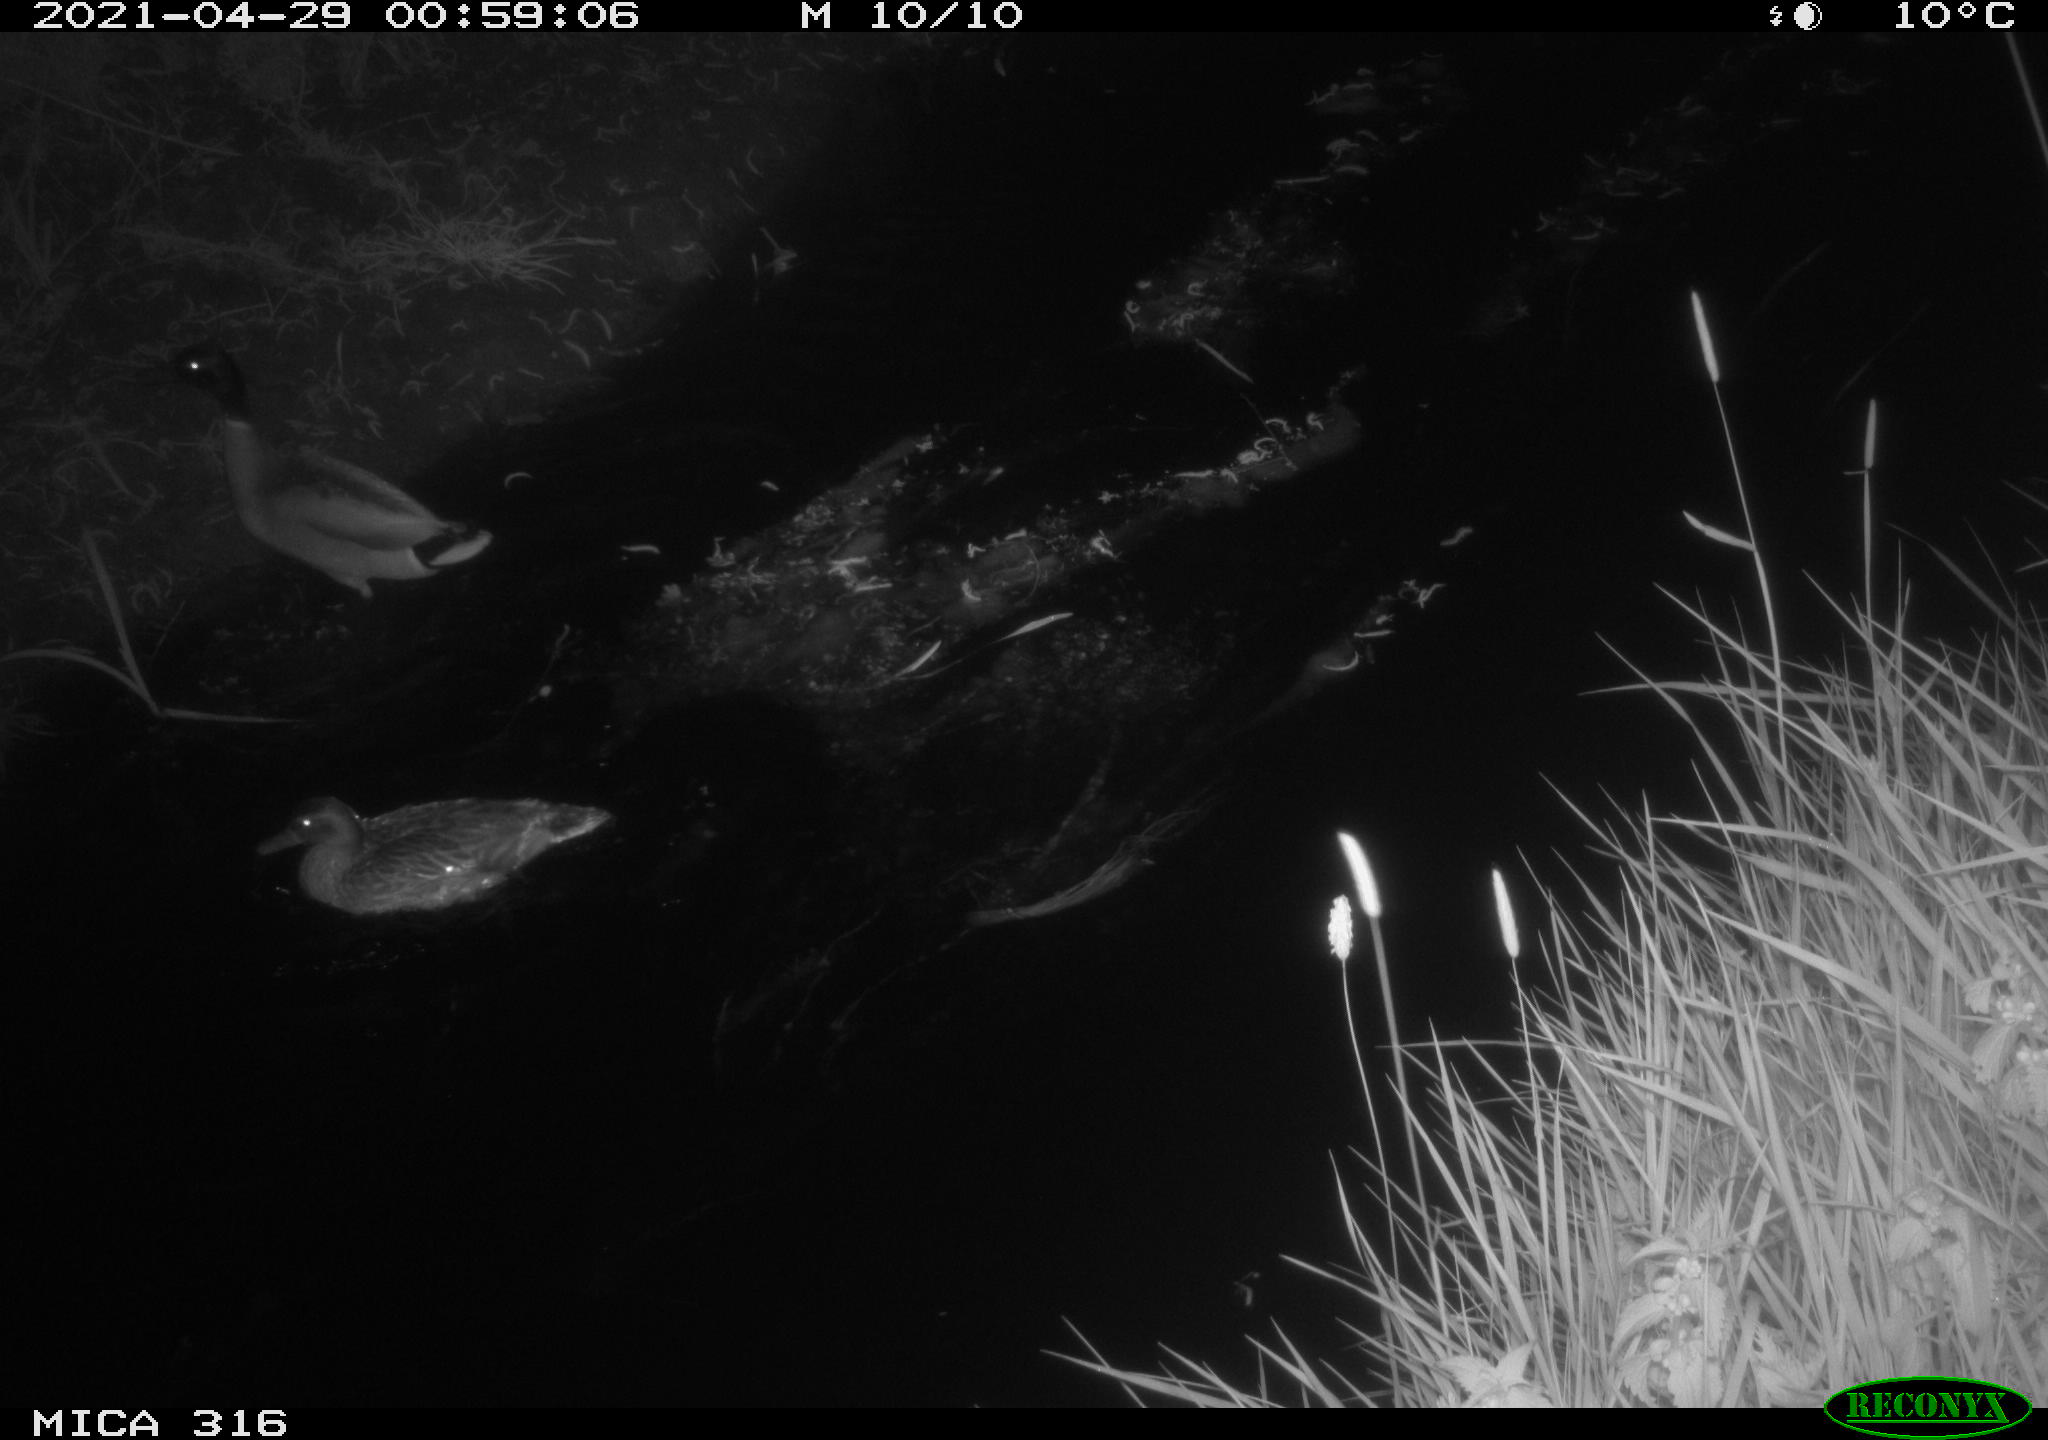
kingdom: Animalia
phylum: Chordata
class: Aves
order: Anseriformes
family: Anatidae
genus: Anas
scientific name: Anas platyrhynchos
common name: Mallard
